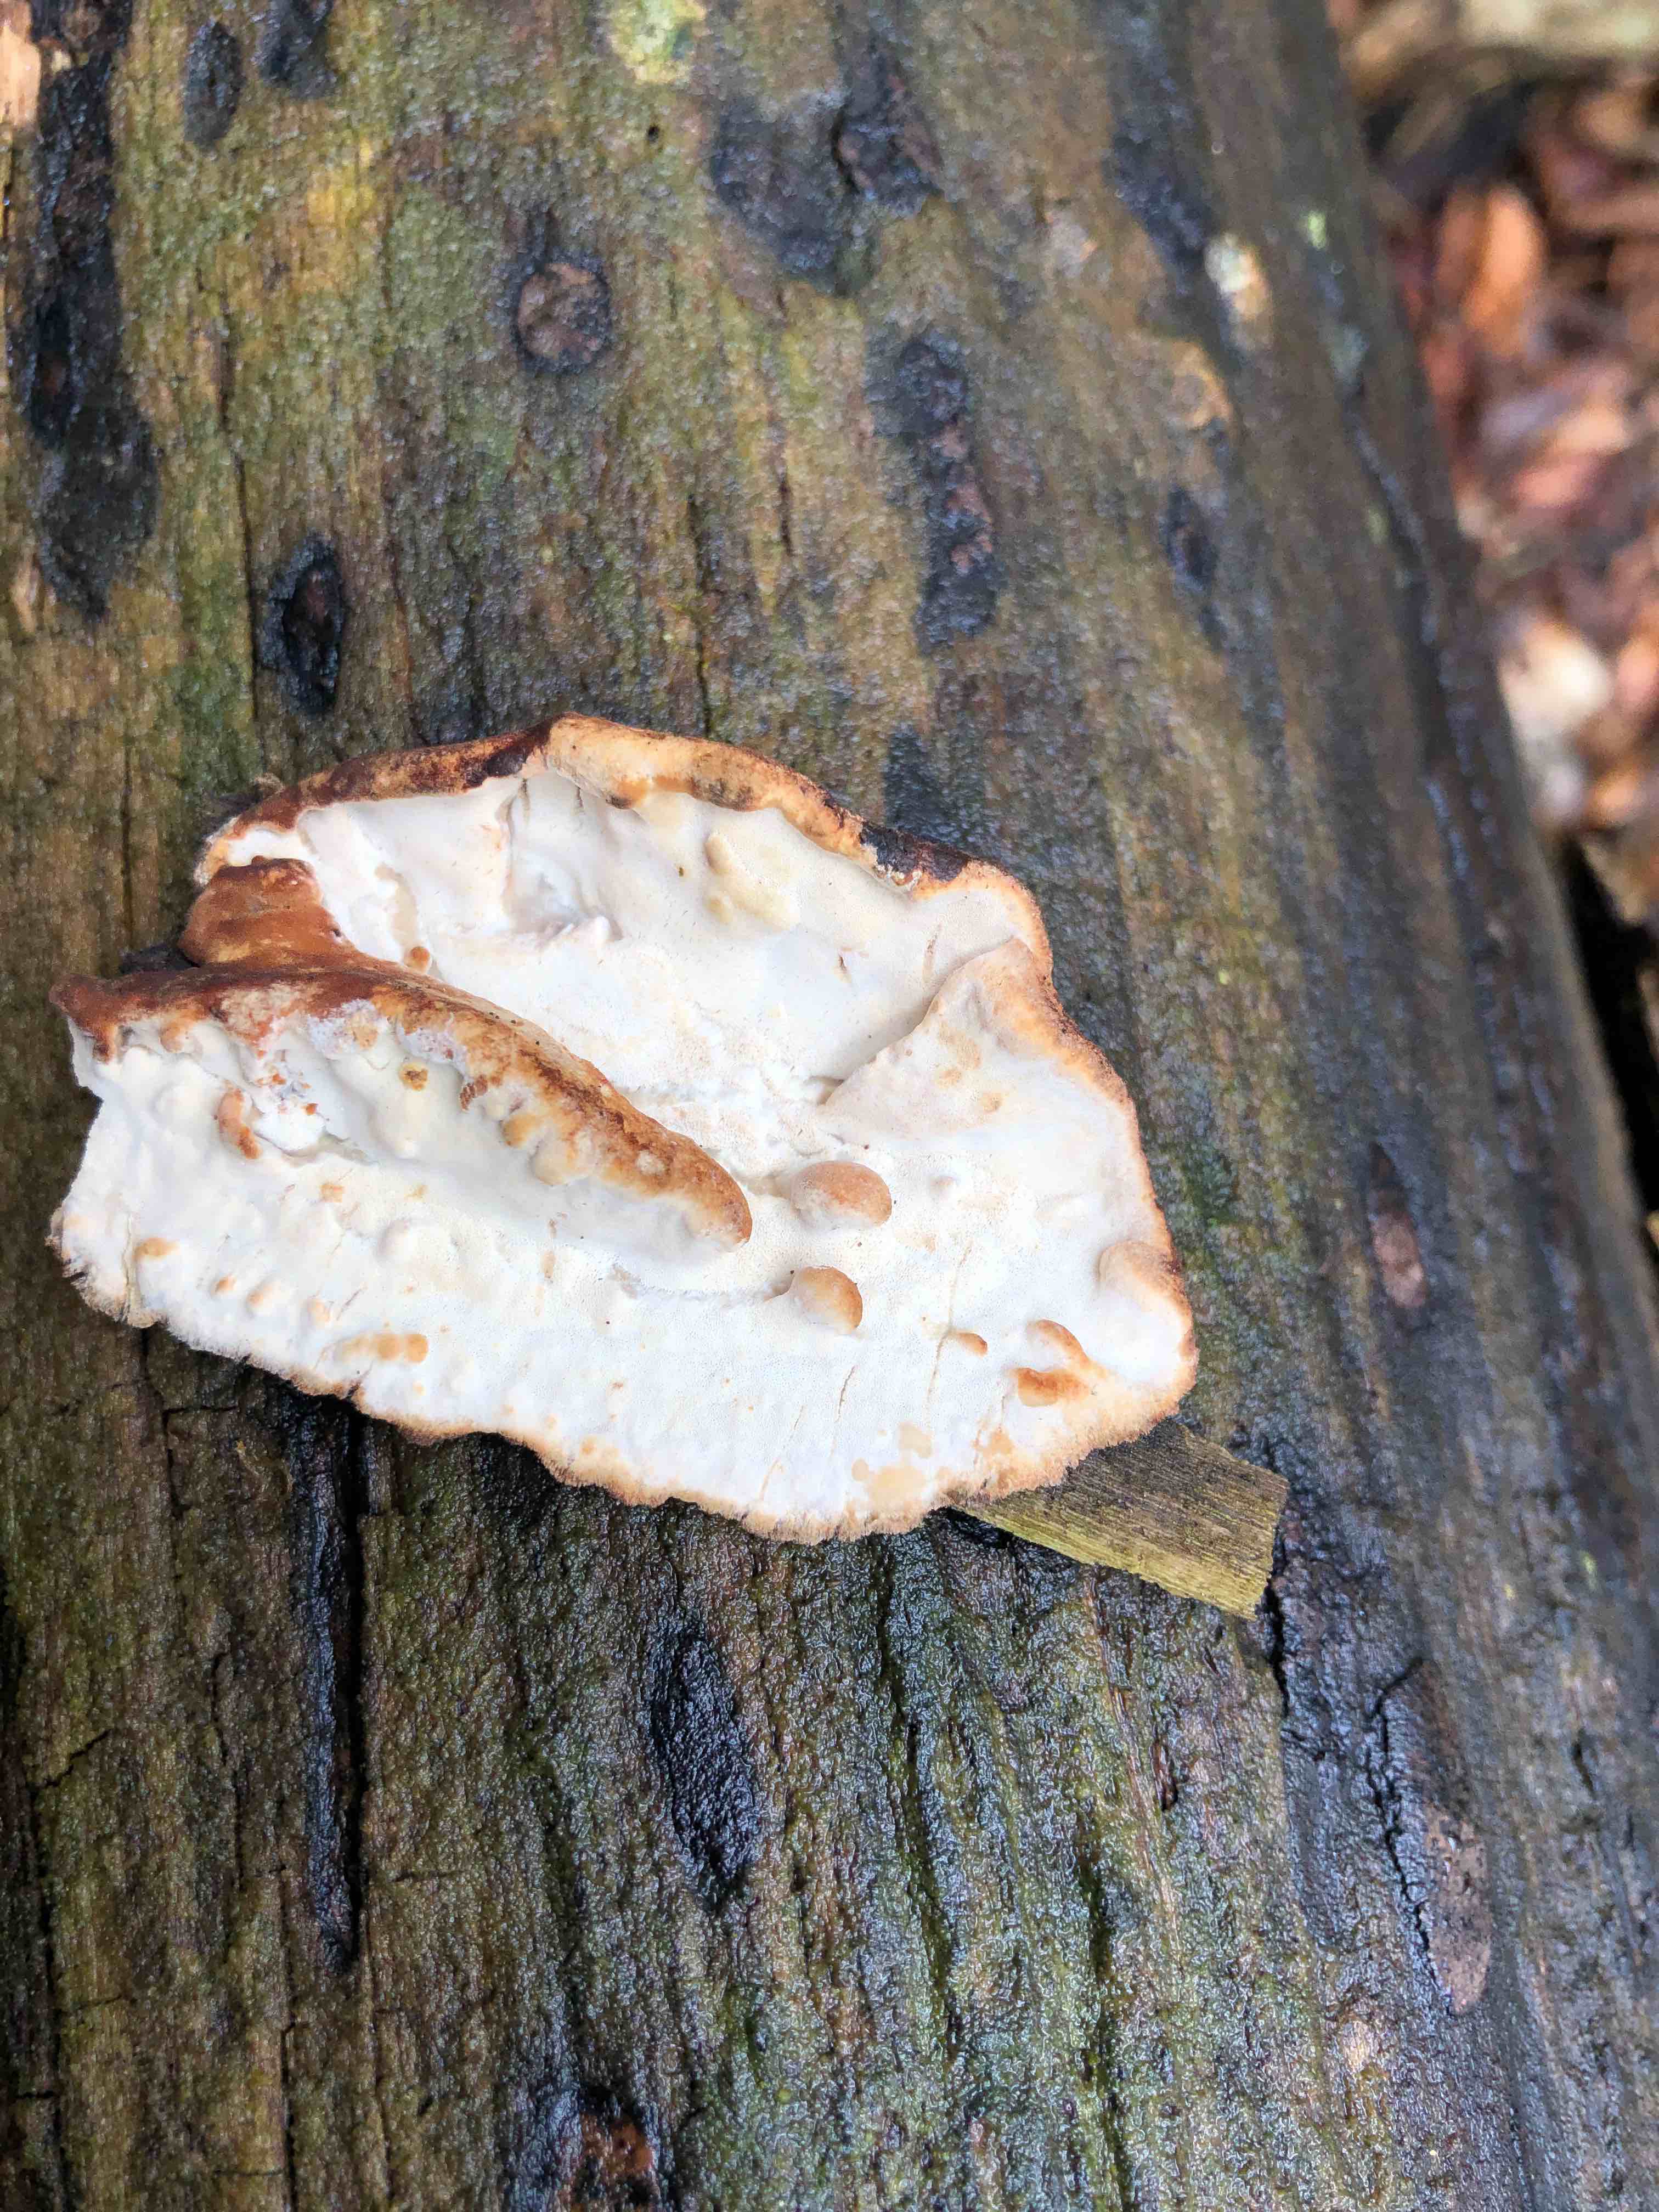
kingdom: Fungi
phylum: Basidiomycota
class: Agaricomycetes
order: Polyporales
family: Incrustoporiaceae
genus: Skeletocutis
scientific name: Skeletocutis nemoralis
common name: stor krystalporesvamp
